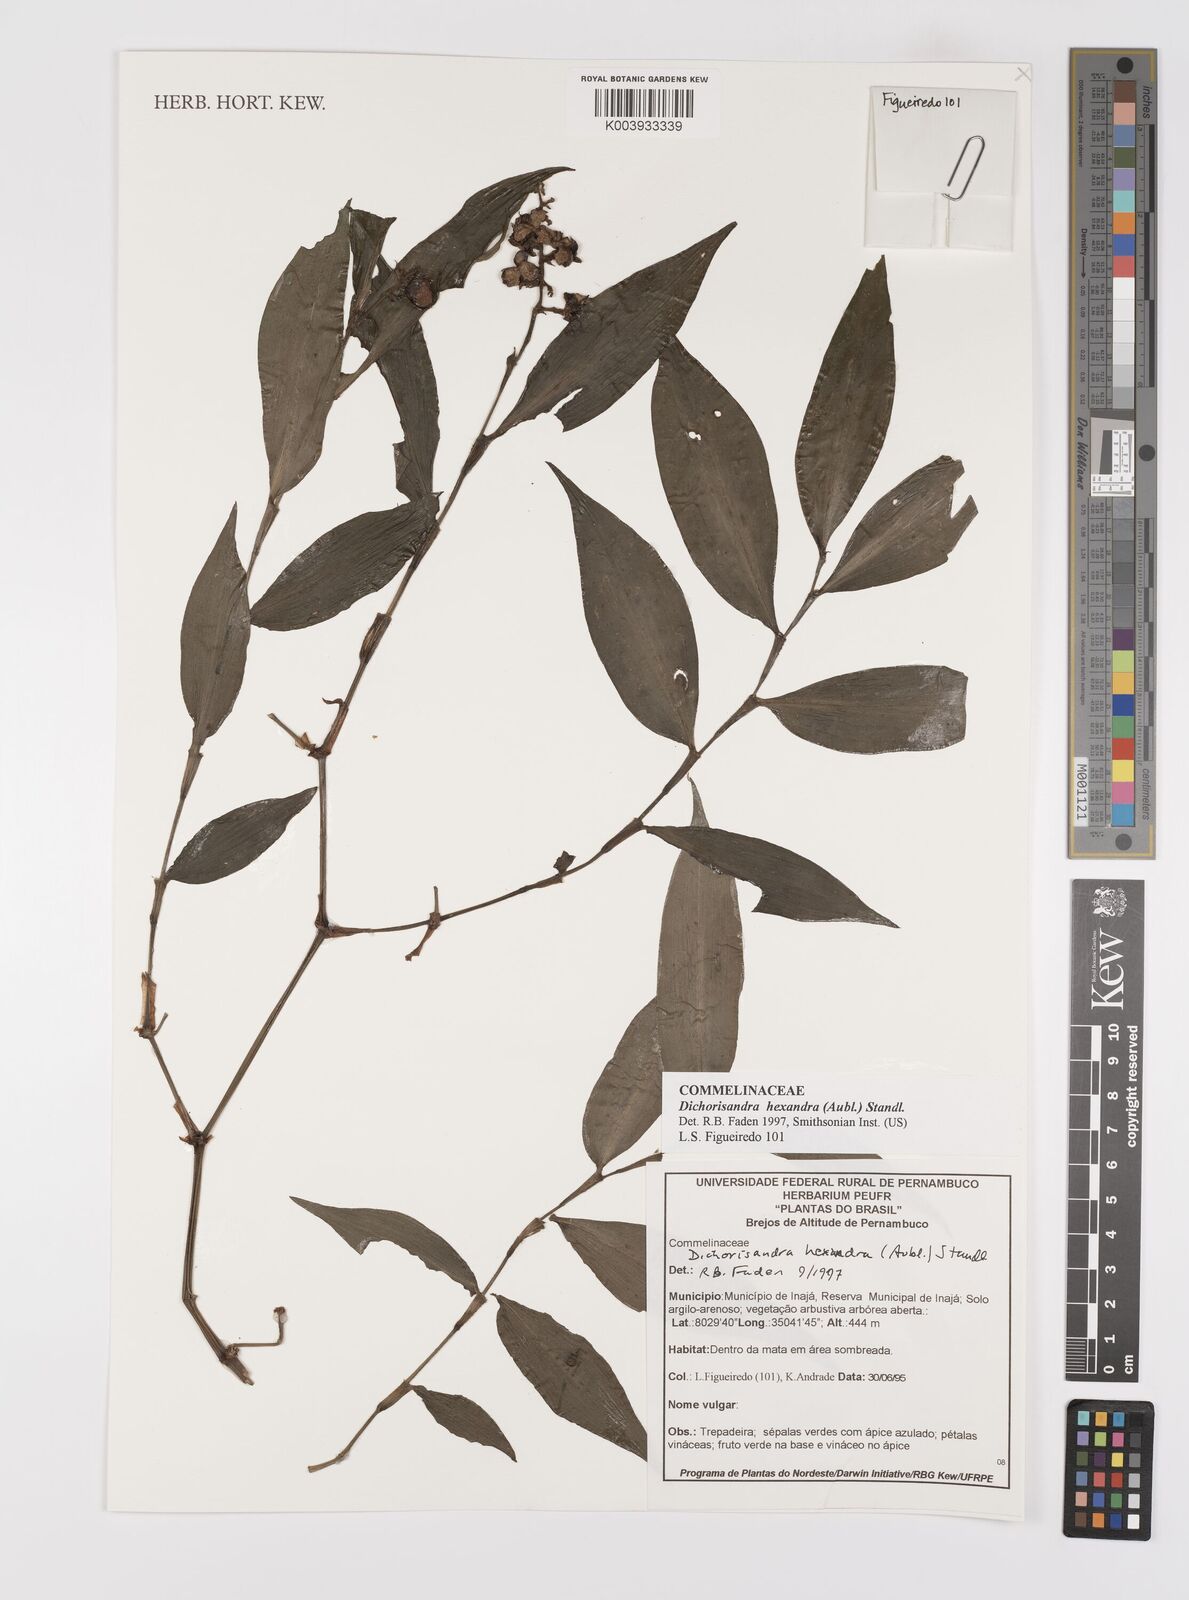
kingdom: Plantae
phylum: Tracheophyta
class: Liliopsida
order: Commelinales
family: Commelinaceae
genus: Dichorisandra
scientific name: Dichorisandra
